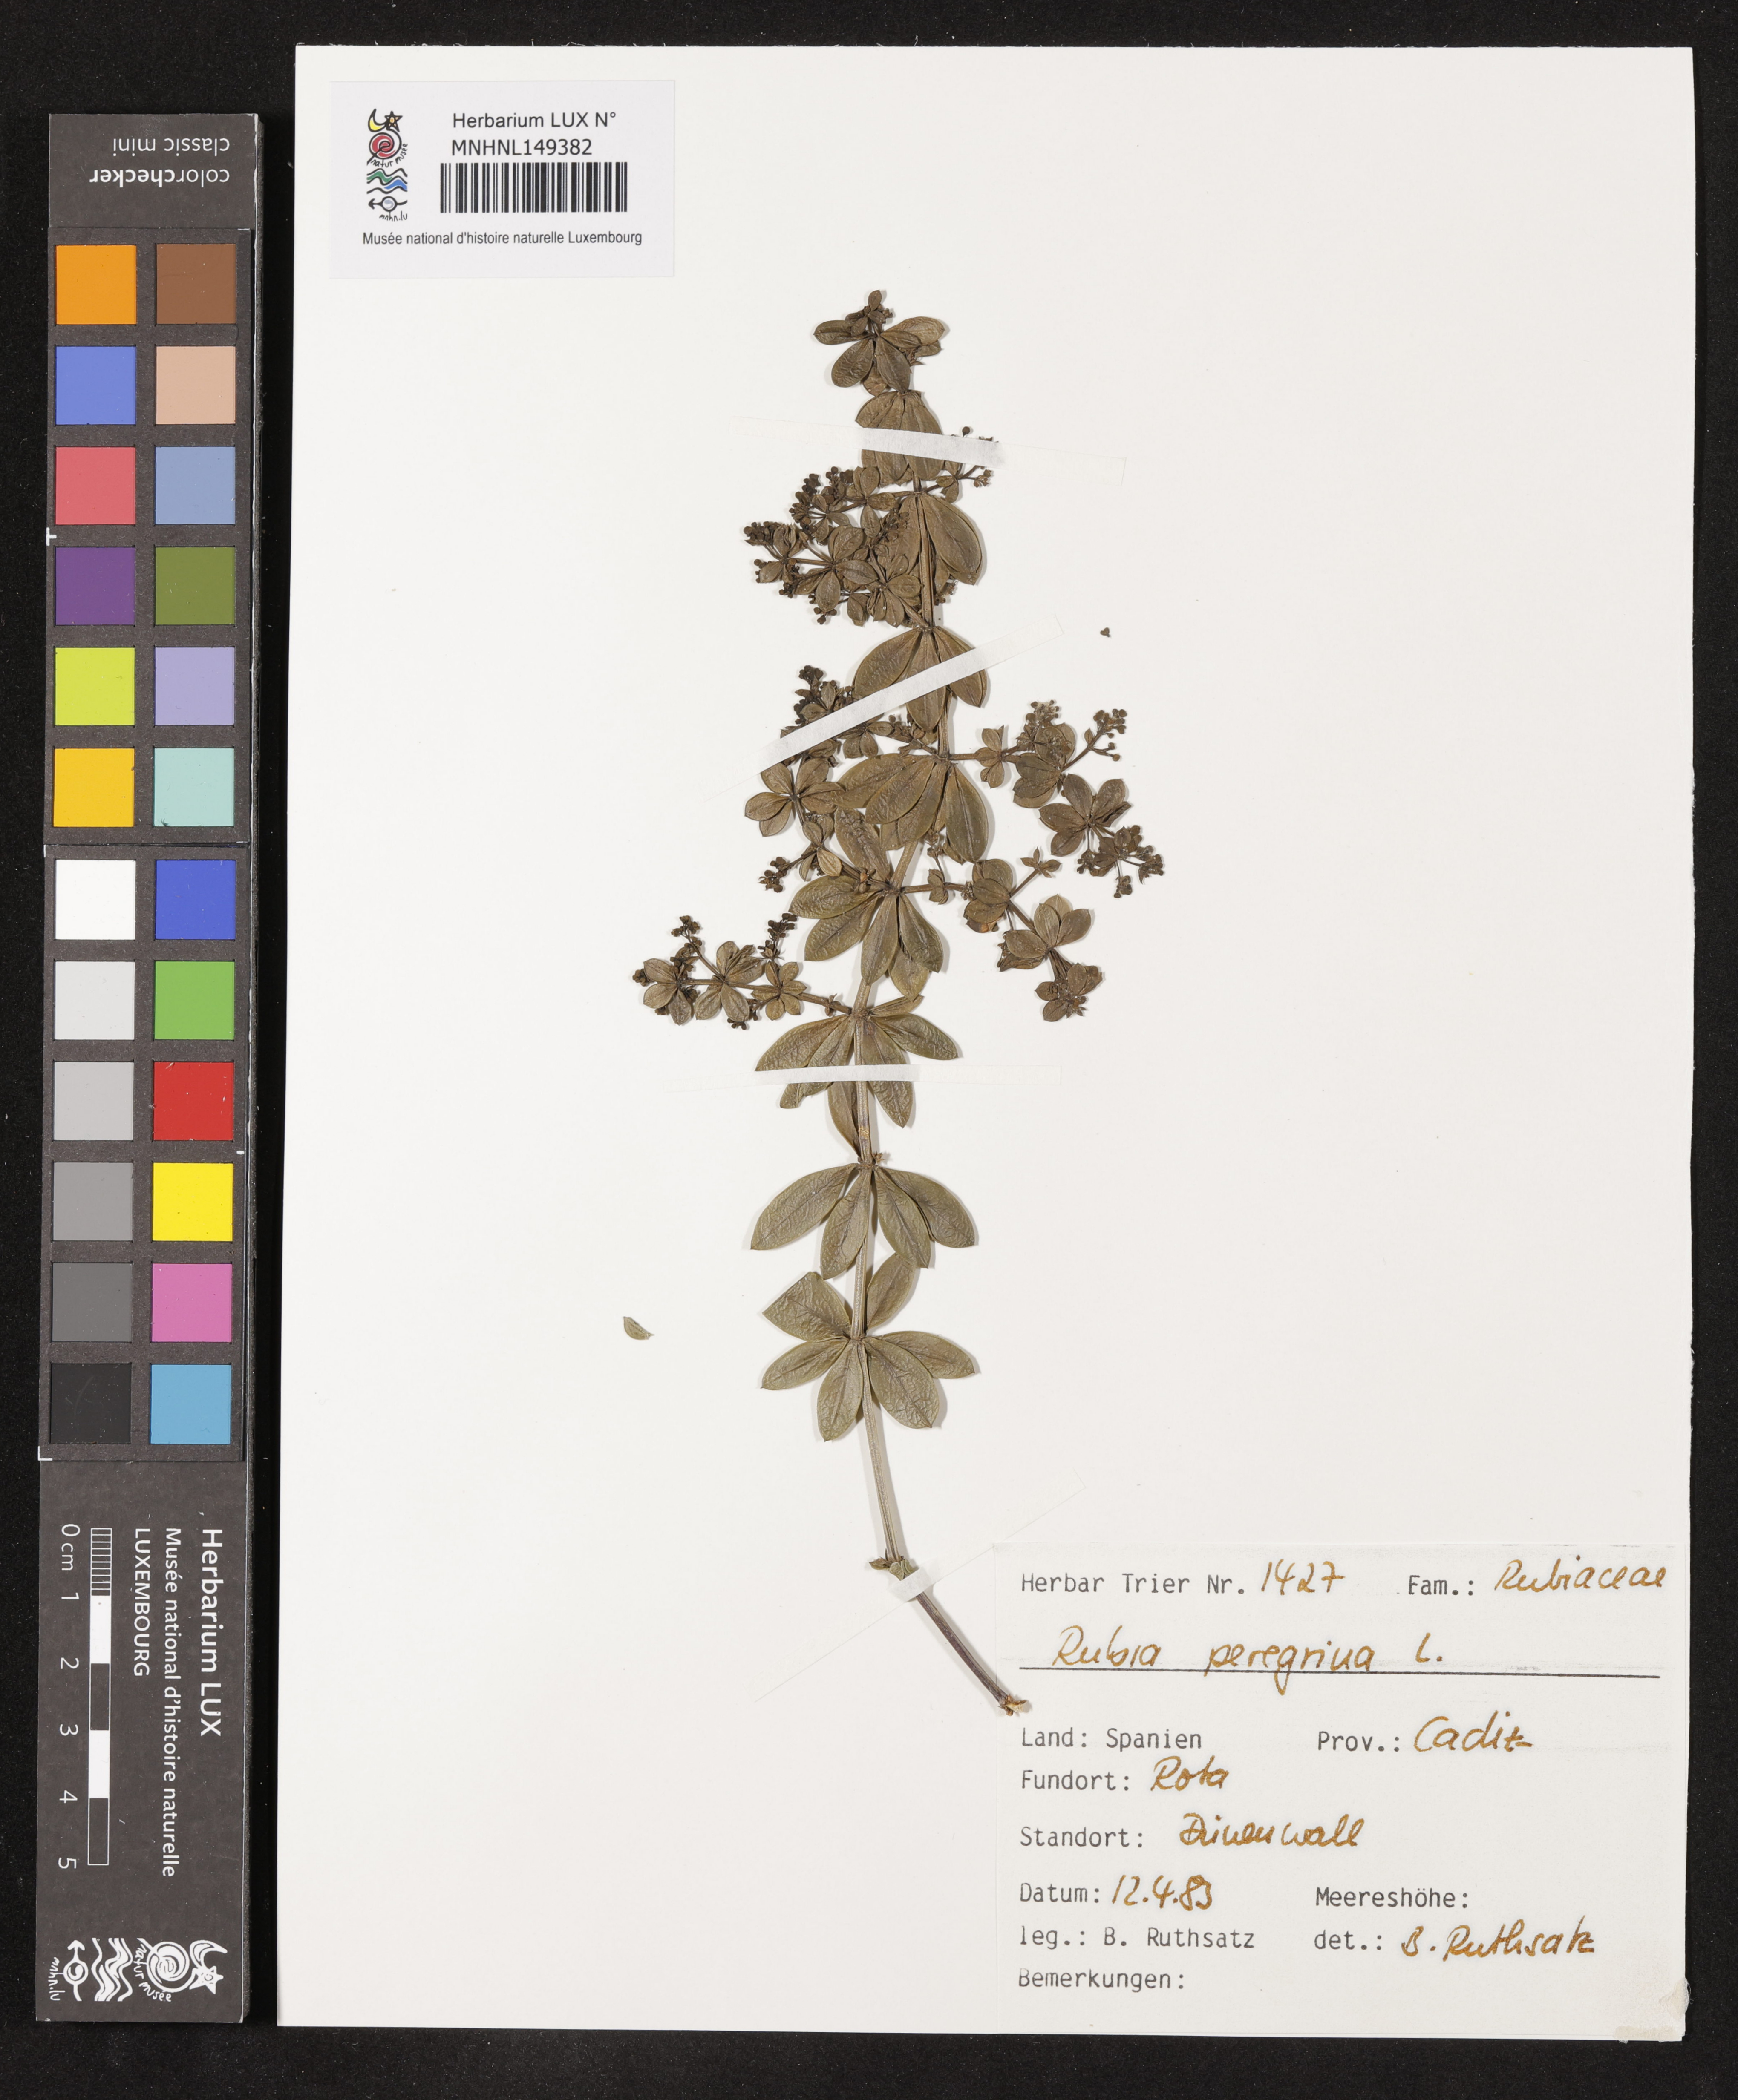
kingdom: Plantae
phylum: Tracheophyta
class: Magnoliopsida
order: Gentianales
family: Rubiaceae
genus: Rubia
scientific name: Rubia peregrina
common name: Wild madder
